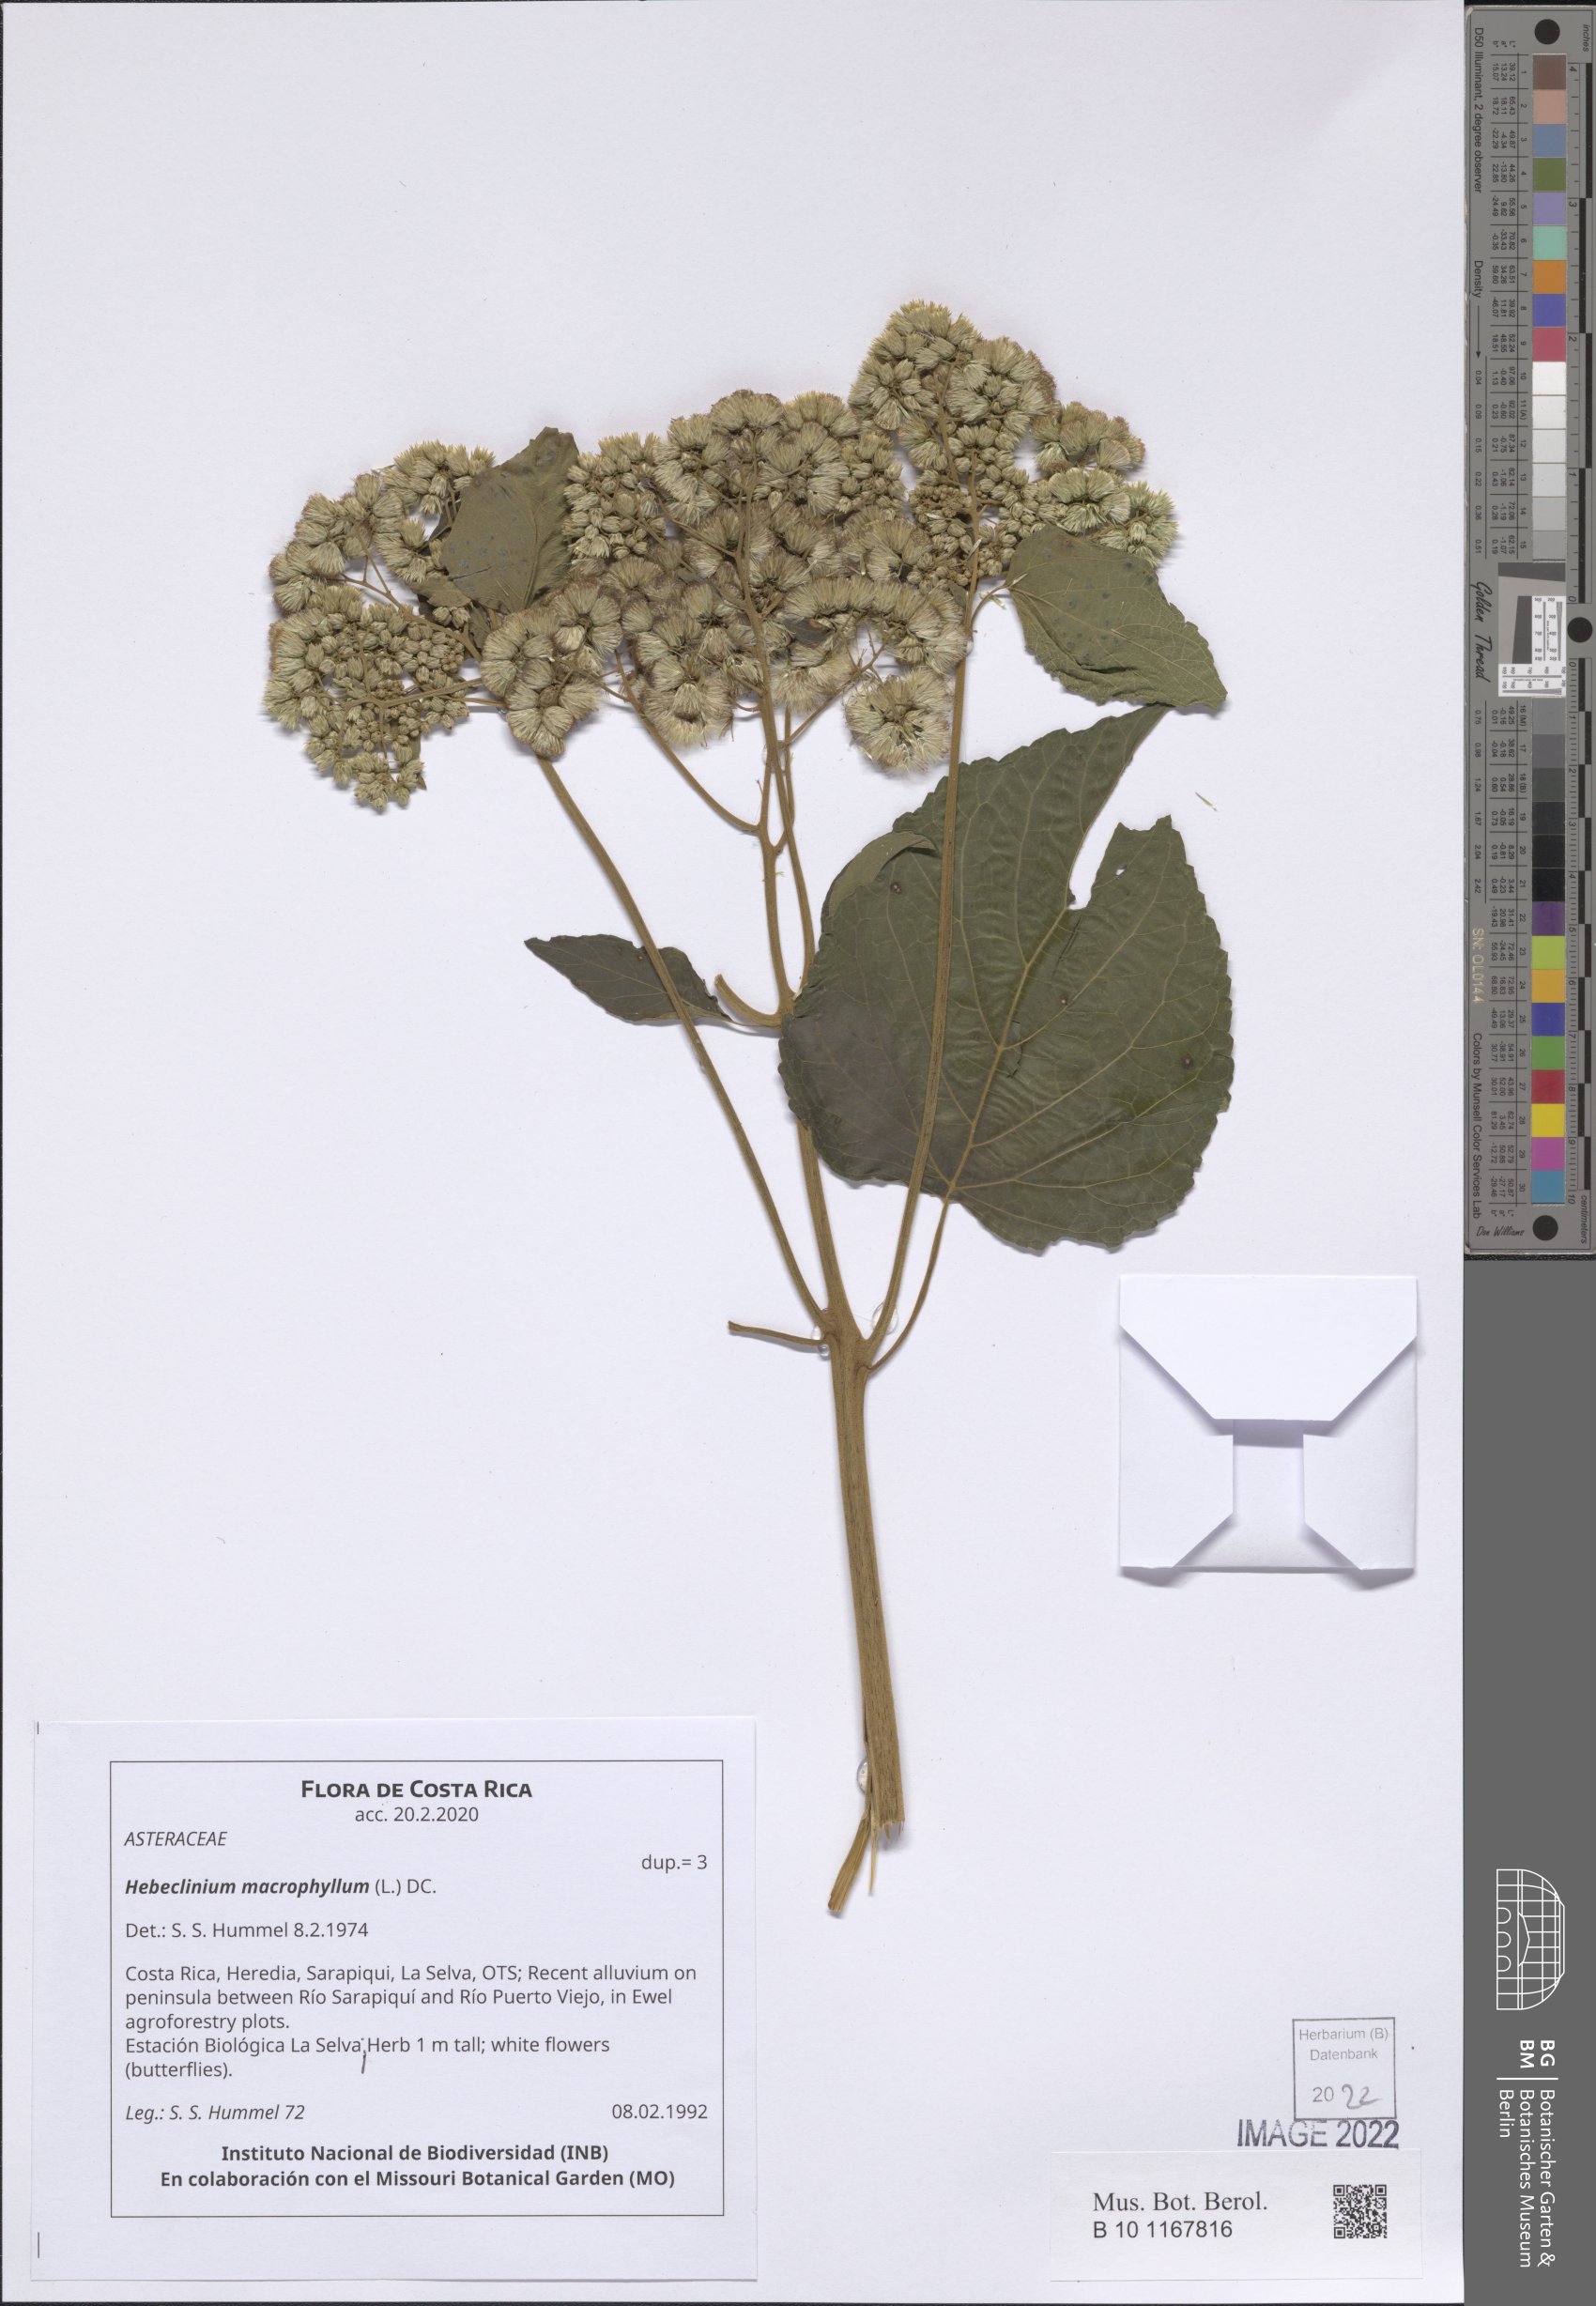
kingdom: Plantae
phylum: Tracheophyta
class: Magnoliopsida
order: Asterales
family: Asteraceae
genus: Hebeclinium
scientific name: Hebeclinium macrophyllum
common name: Largeleaf thoroughwort
